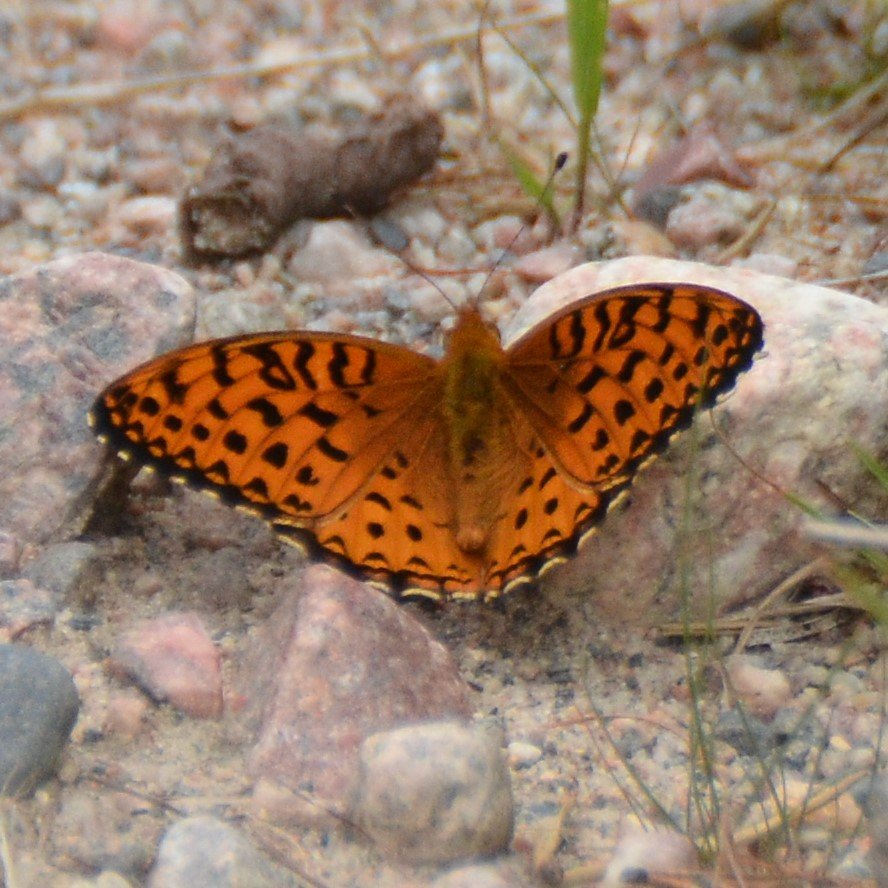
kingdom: Animalia
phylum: Arthropoda
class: Insecta
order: Lepidoptera
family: Nymphalidae
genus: Speyeria
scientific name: Speyeria aphrodite
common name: Aphrodite Fritillary
